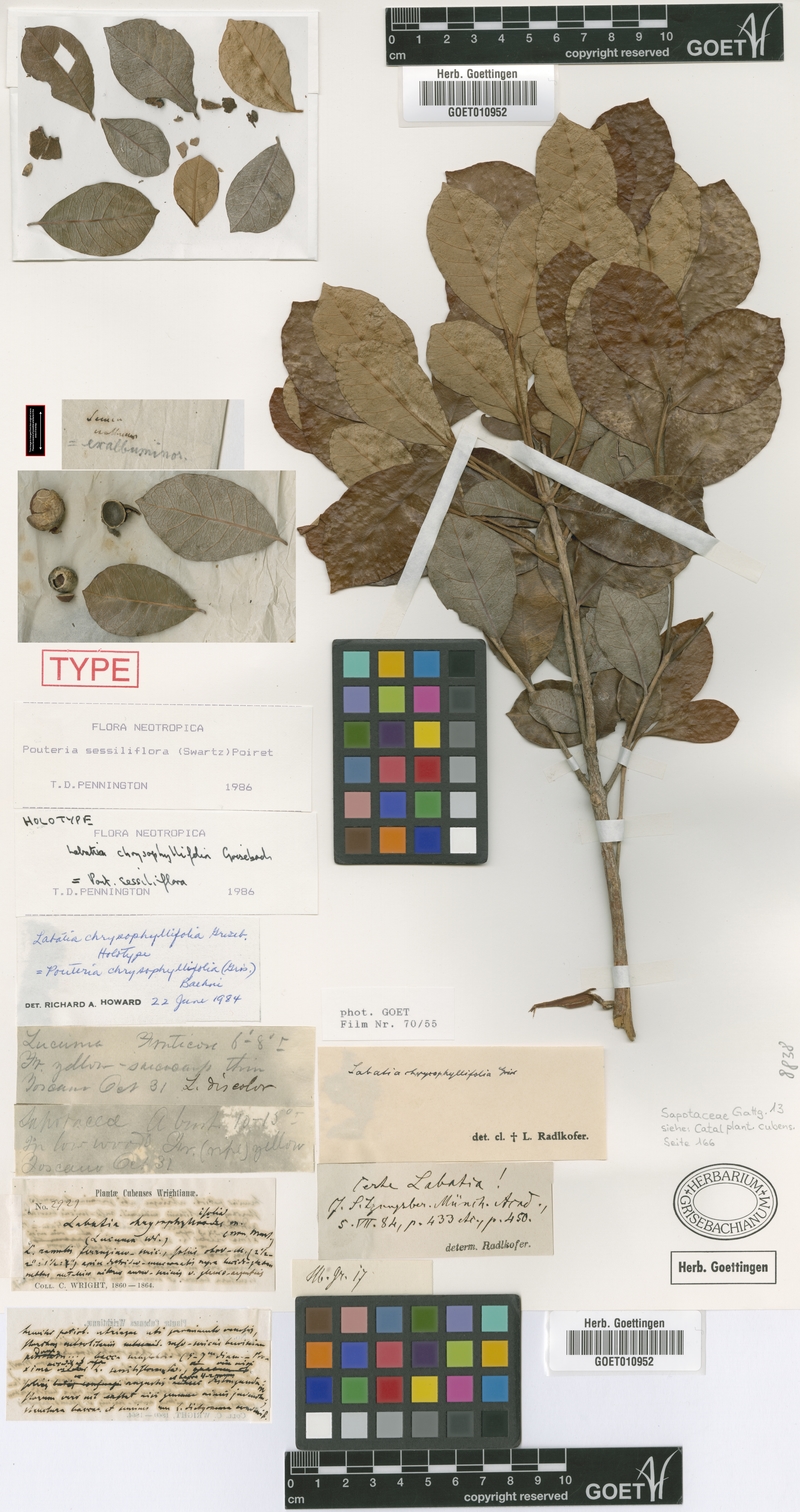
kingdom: Plantae
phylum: Tracheophyta
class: Magnoliopsida
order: Ericales
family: Sapotaceae
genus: Pouteria
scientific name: Pouteria sessiliflora
